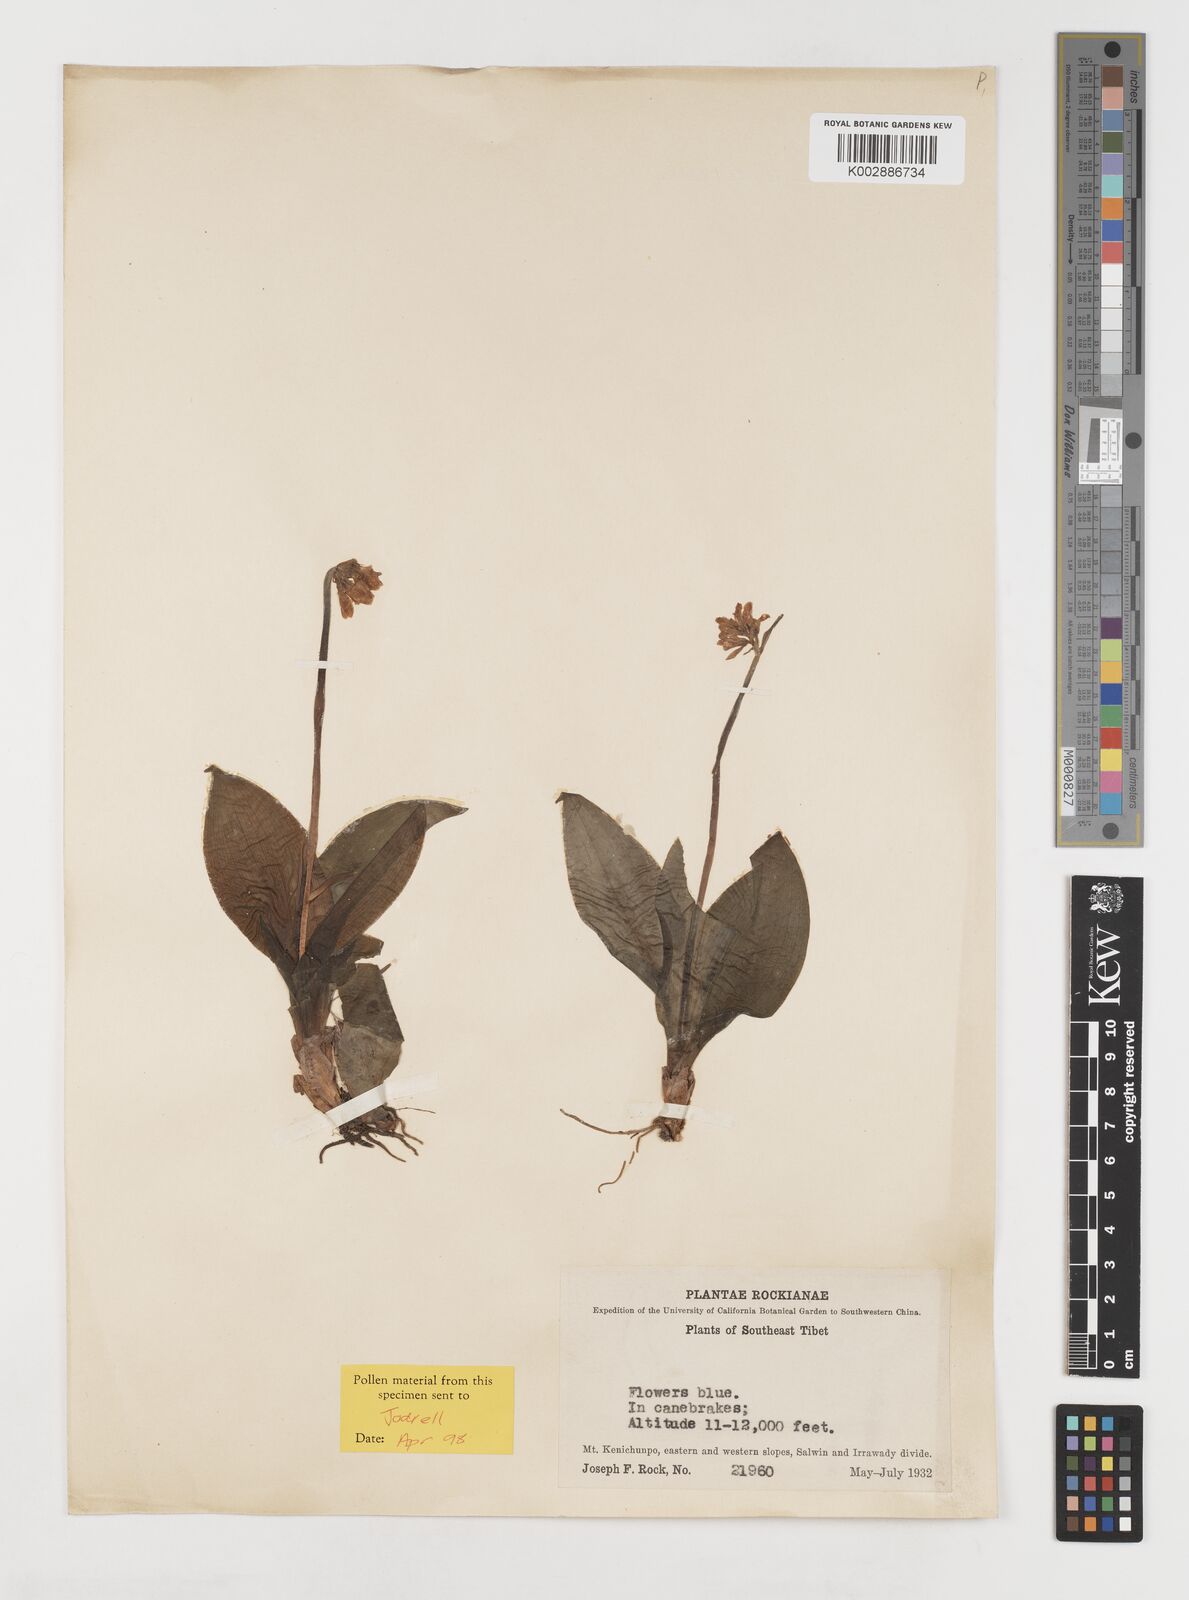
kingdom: Plantae
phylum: Tracheophyta
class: Liliopsida
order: Liliales
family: Liliaceae
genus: Clintonia
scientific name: Clintonia udensis
